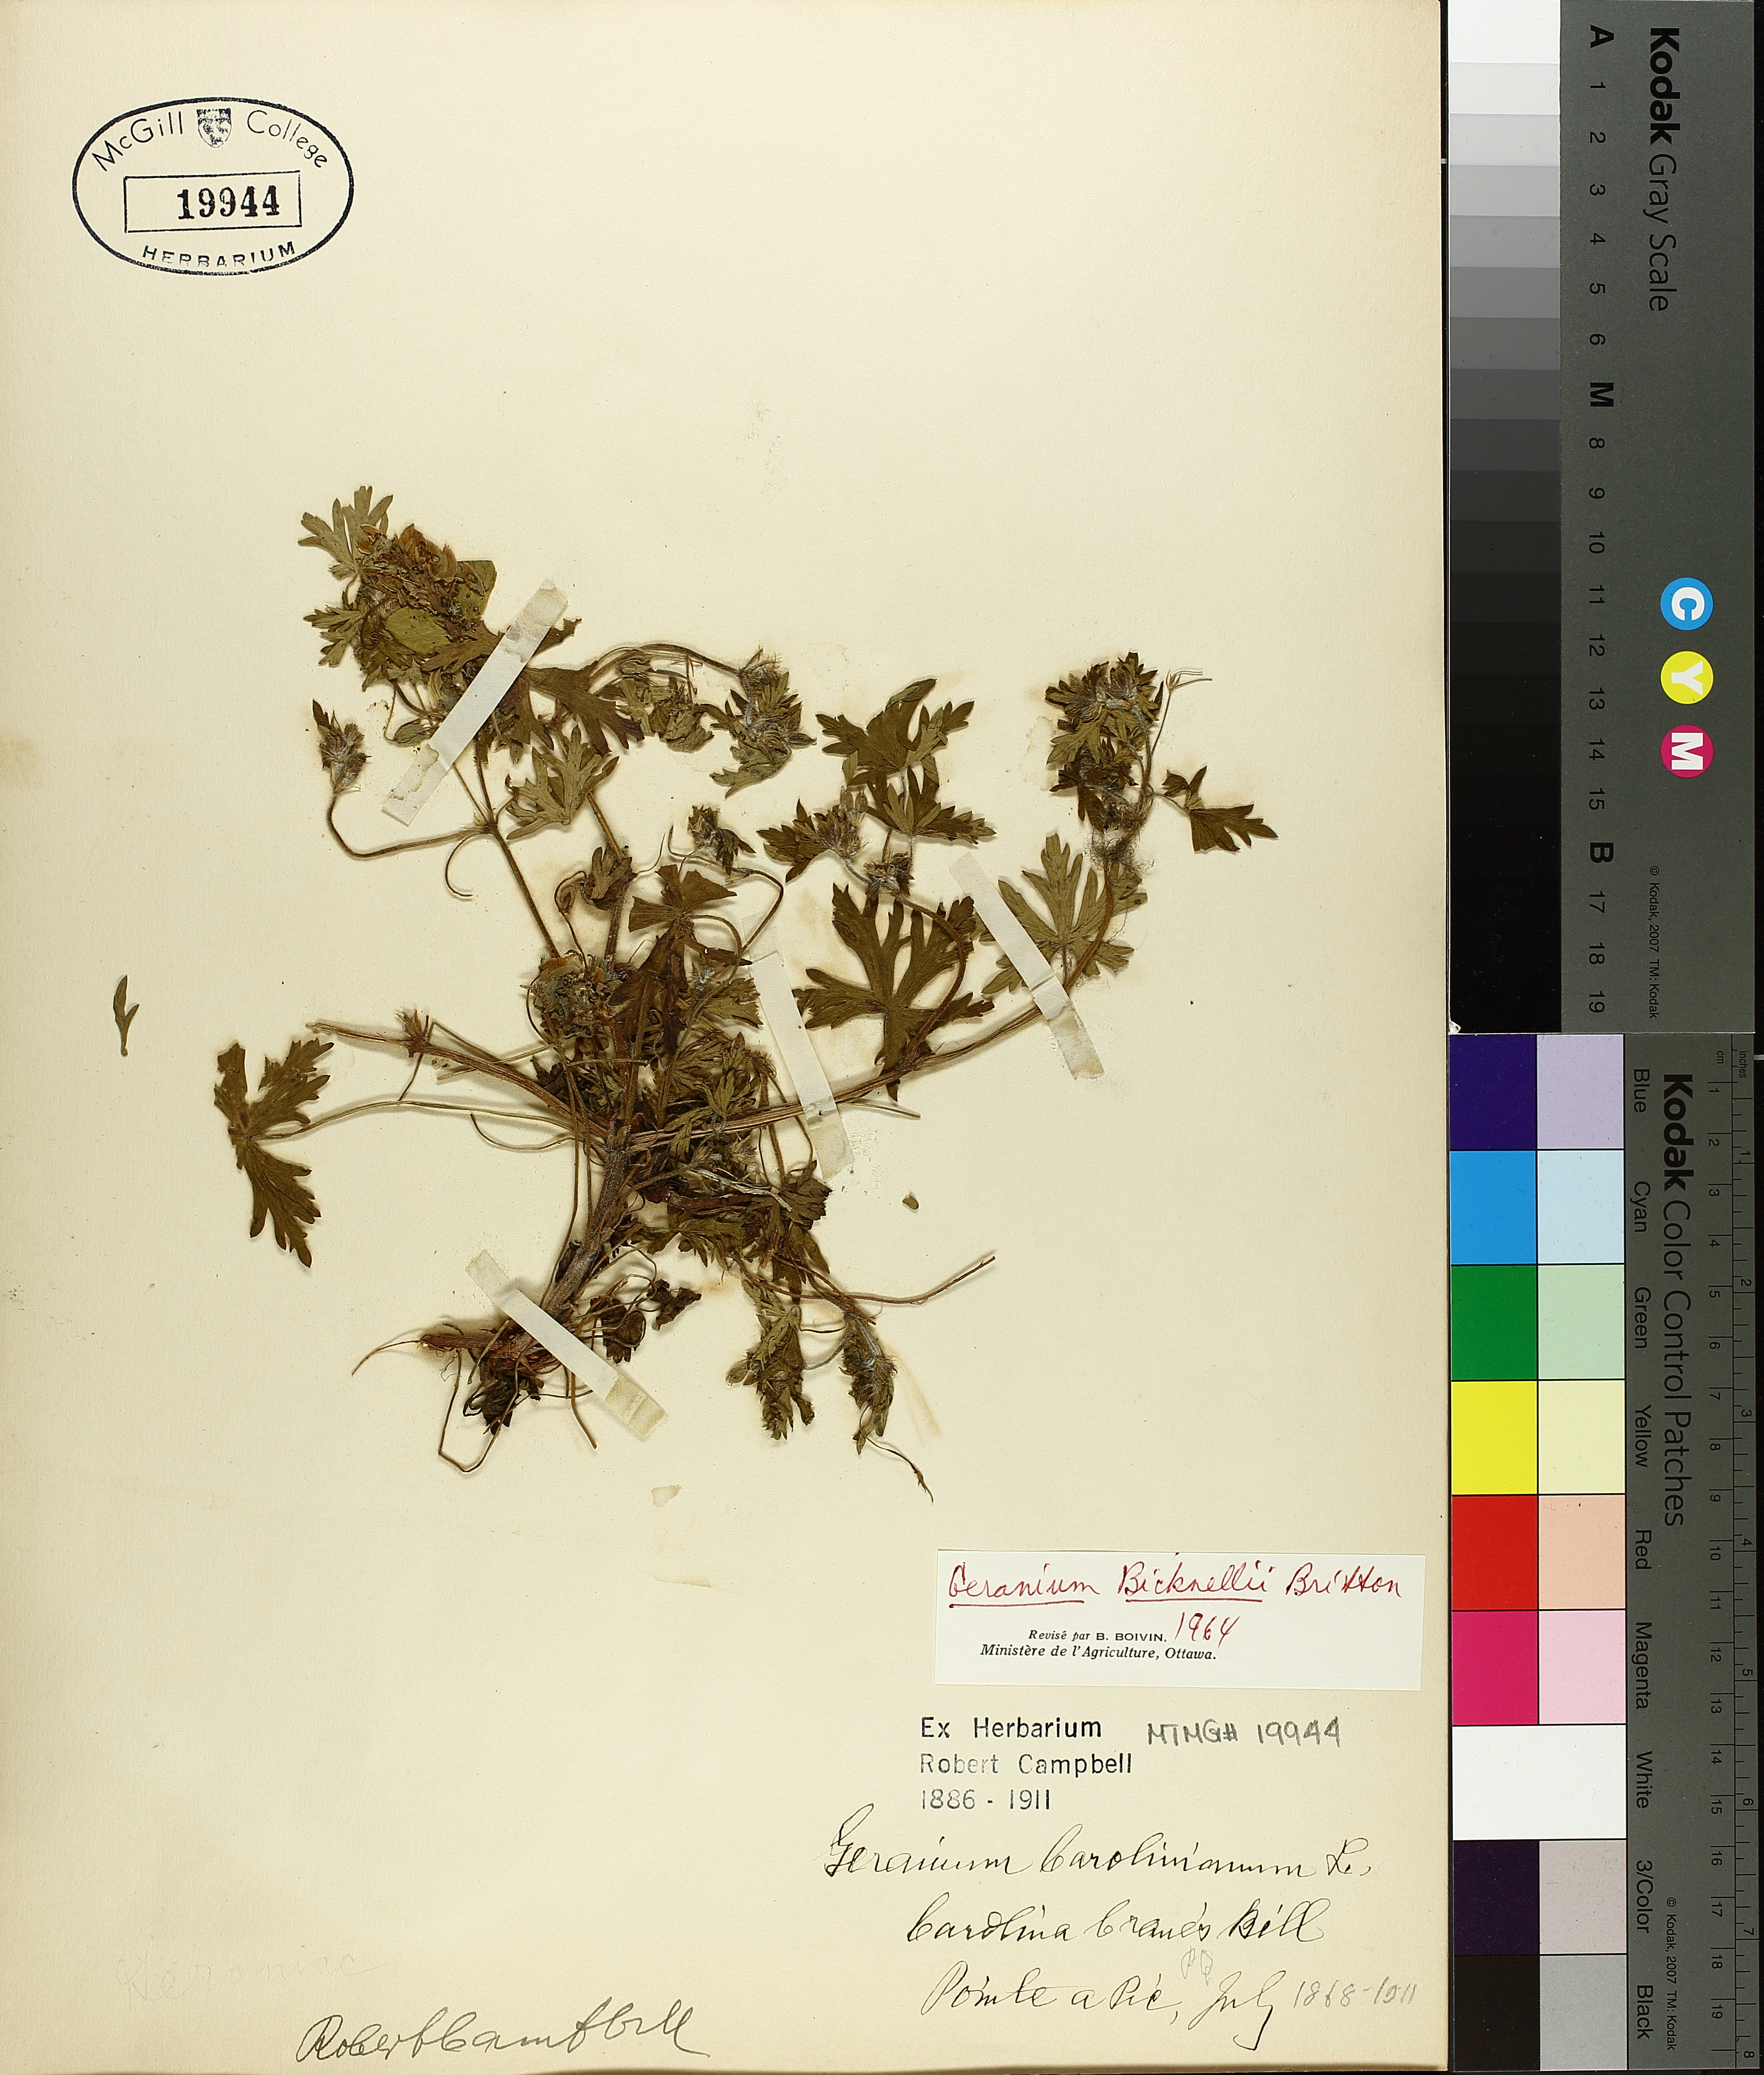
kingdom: Plantae
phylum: Tracheophyta
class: Magnoliopsida
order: Geraniales
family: Geraniaceae
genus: Geranium
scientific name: Geranium bicknellii
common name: Bicknell's cranesbill
